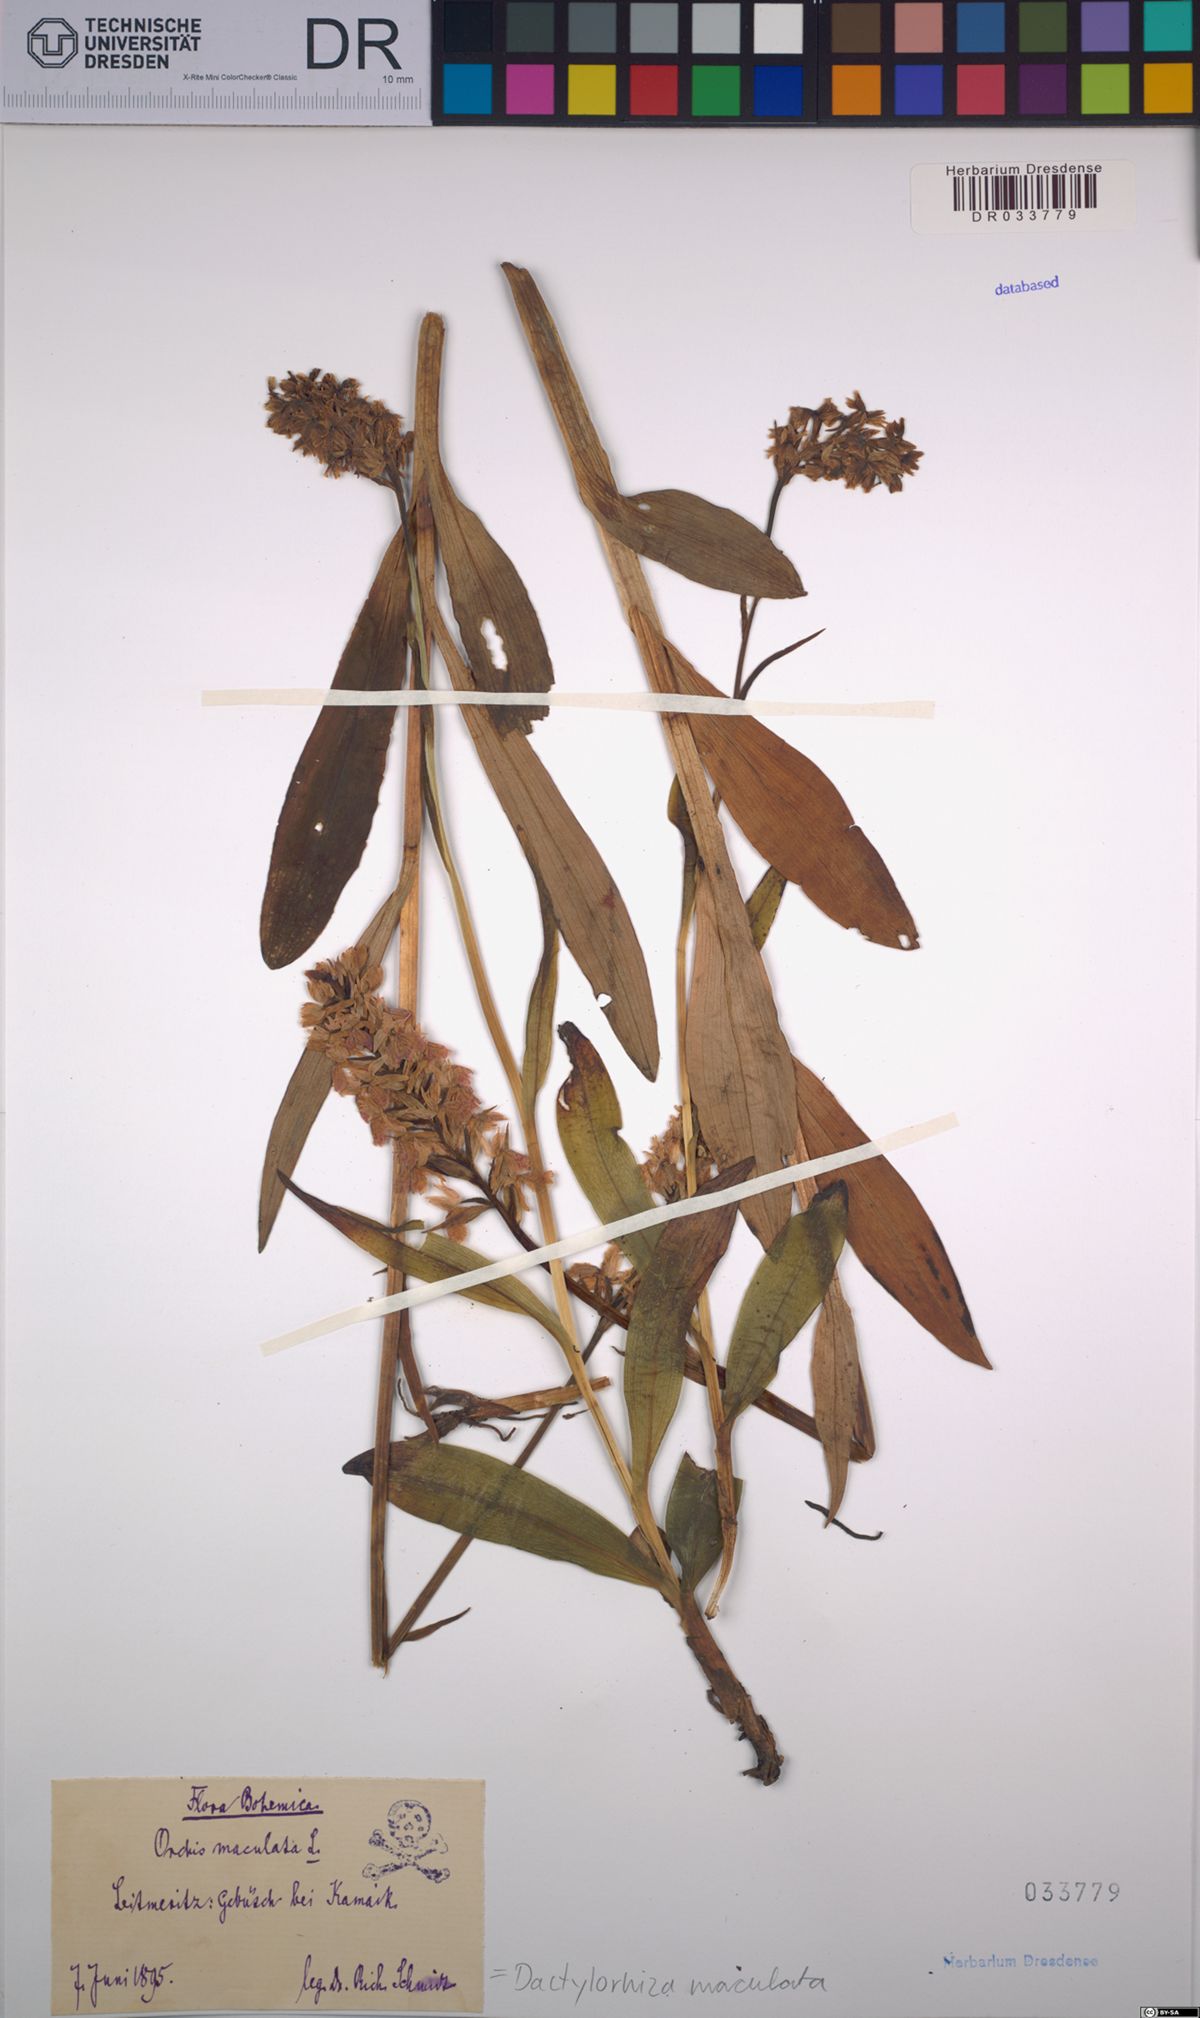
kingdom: Plantae
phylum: Tracheophyta
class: Liliopsida
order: Asparagales
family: Orchidaceae
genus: Dactylorhiza
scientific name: Dactylorhiza maculata
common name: Heath spotted-orchid
